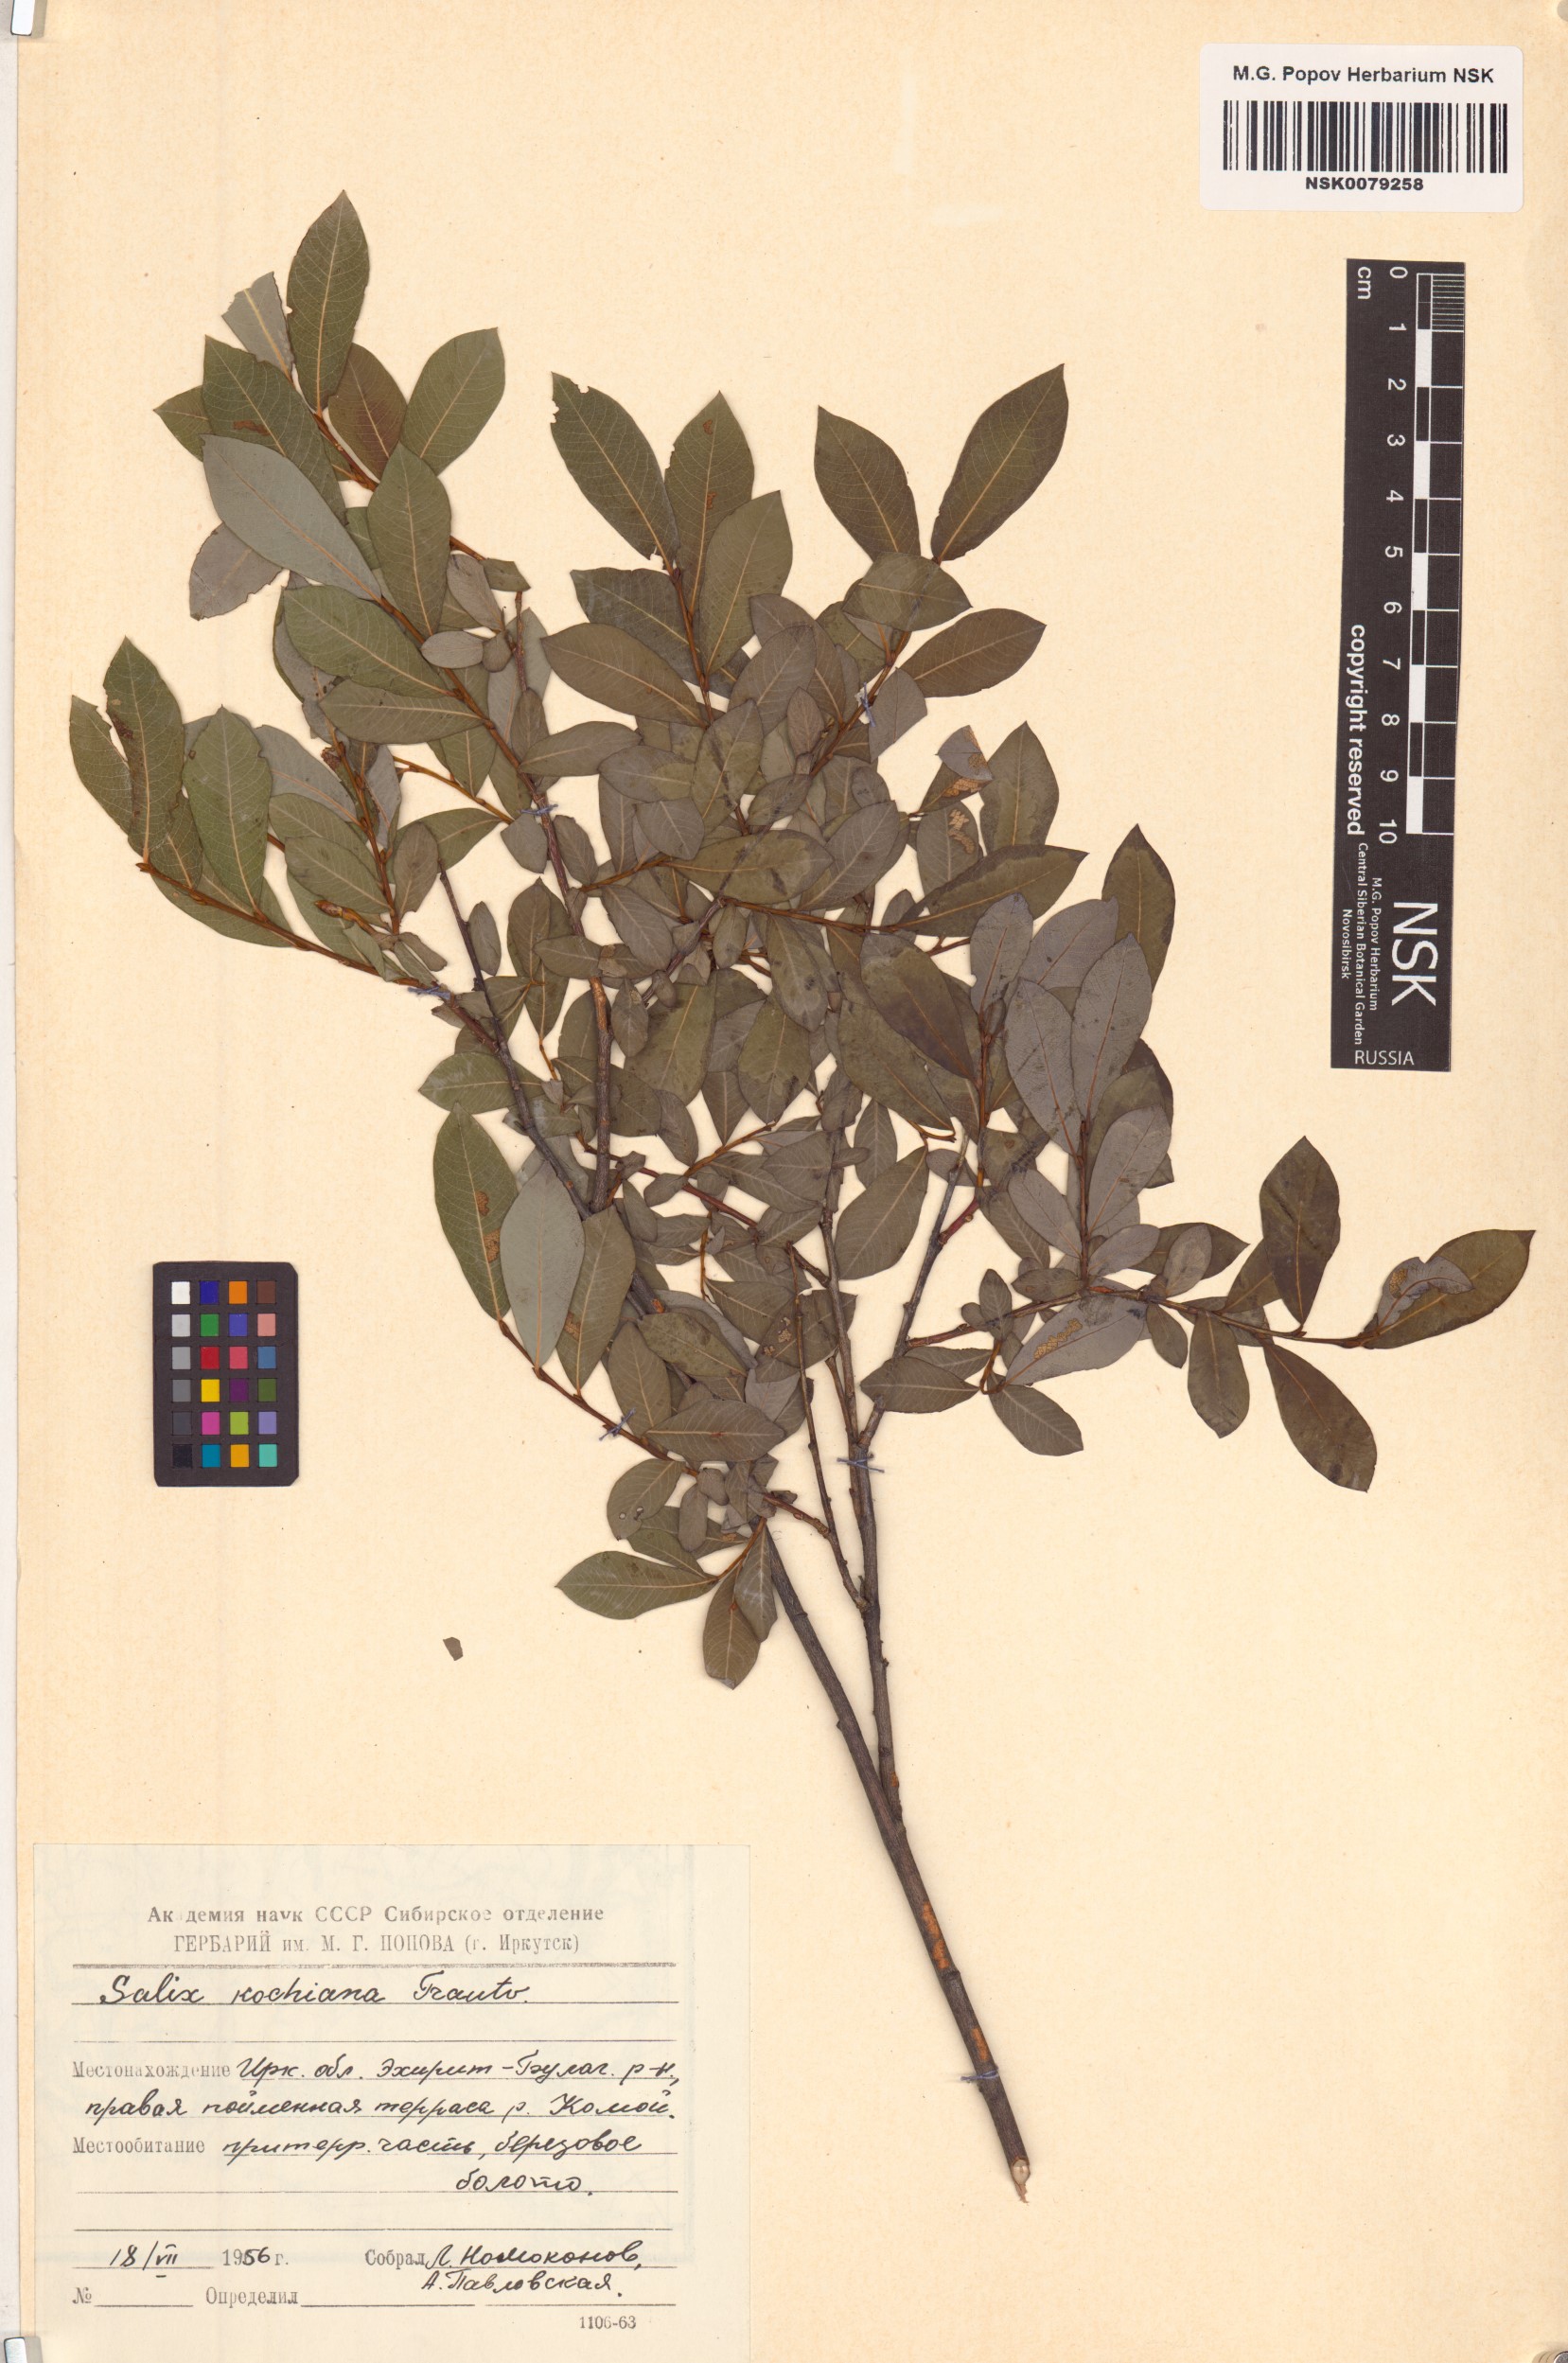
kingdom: Plantae
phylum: Tracheophyta
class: Magnoliopsida
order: Malpighiales
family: Salicaceae
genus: Salix
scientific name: Salix kochiana
